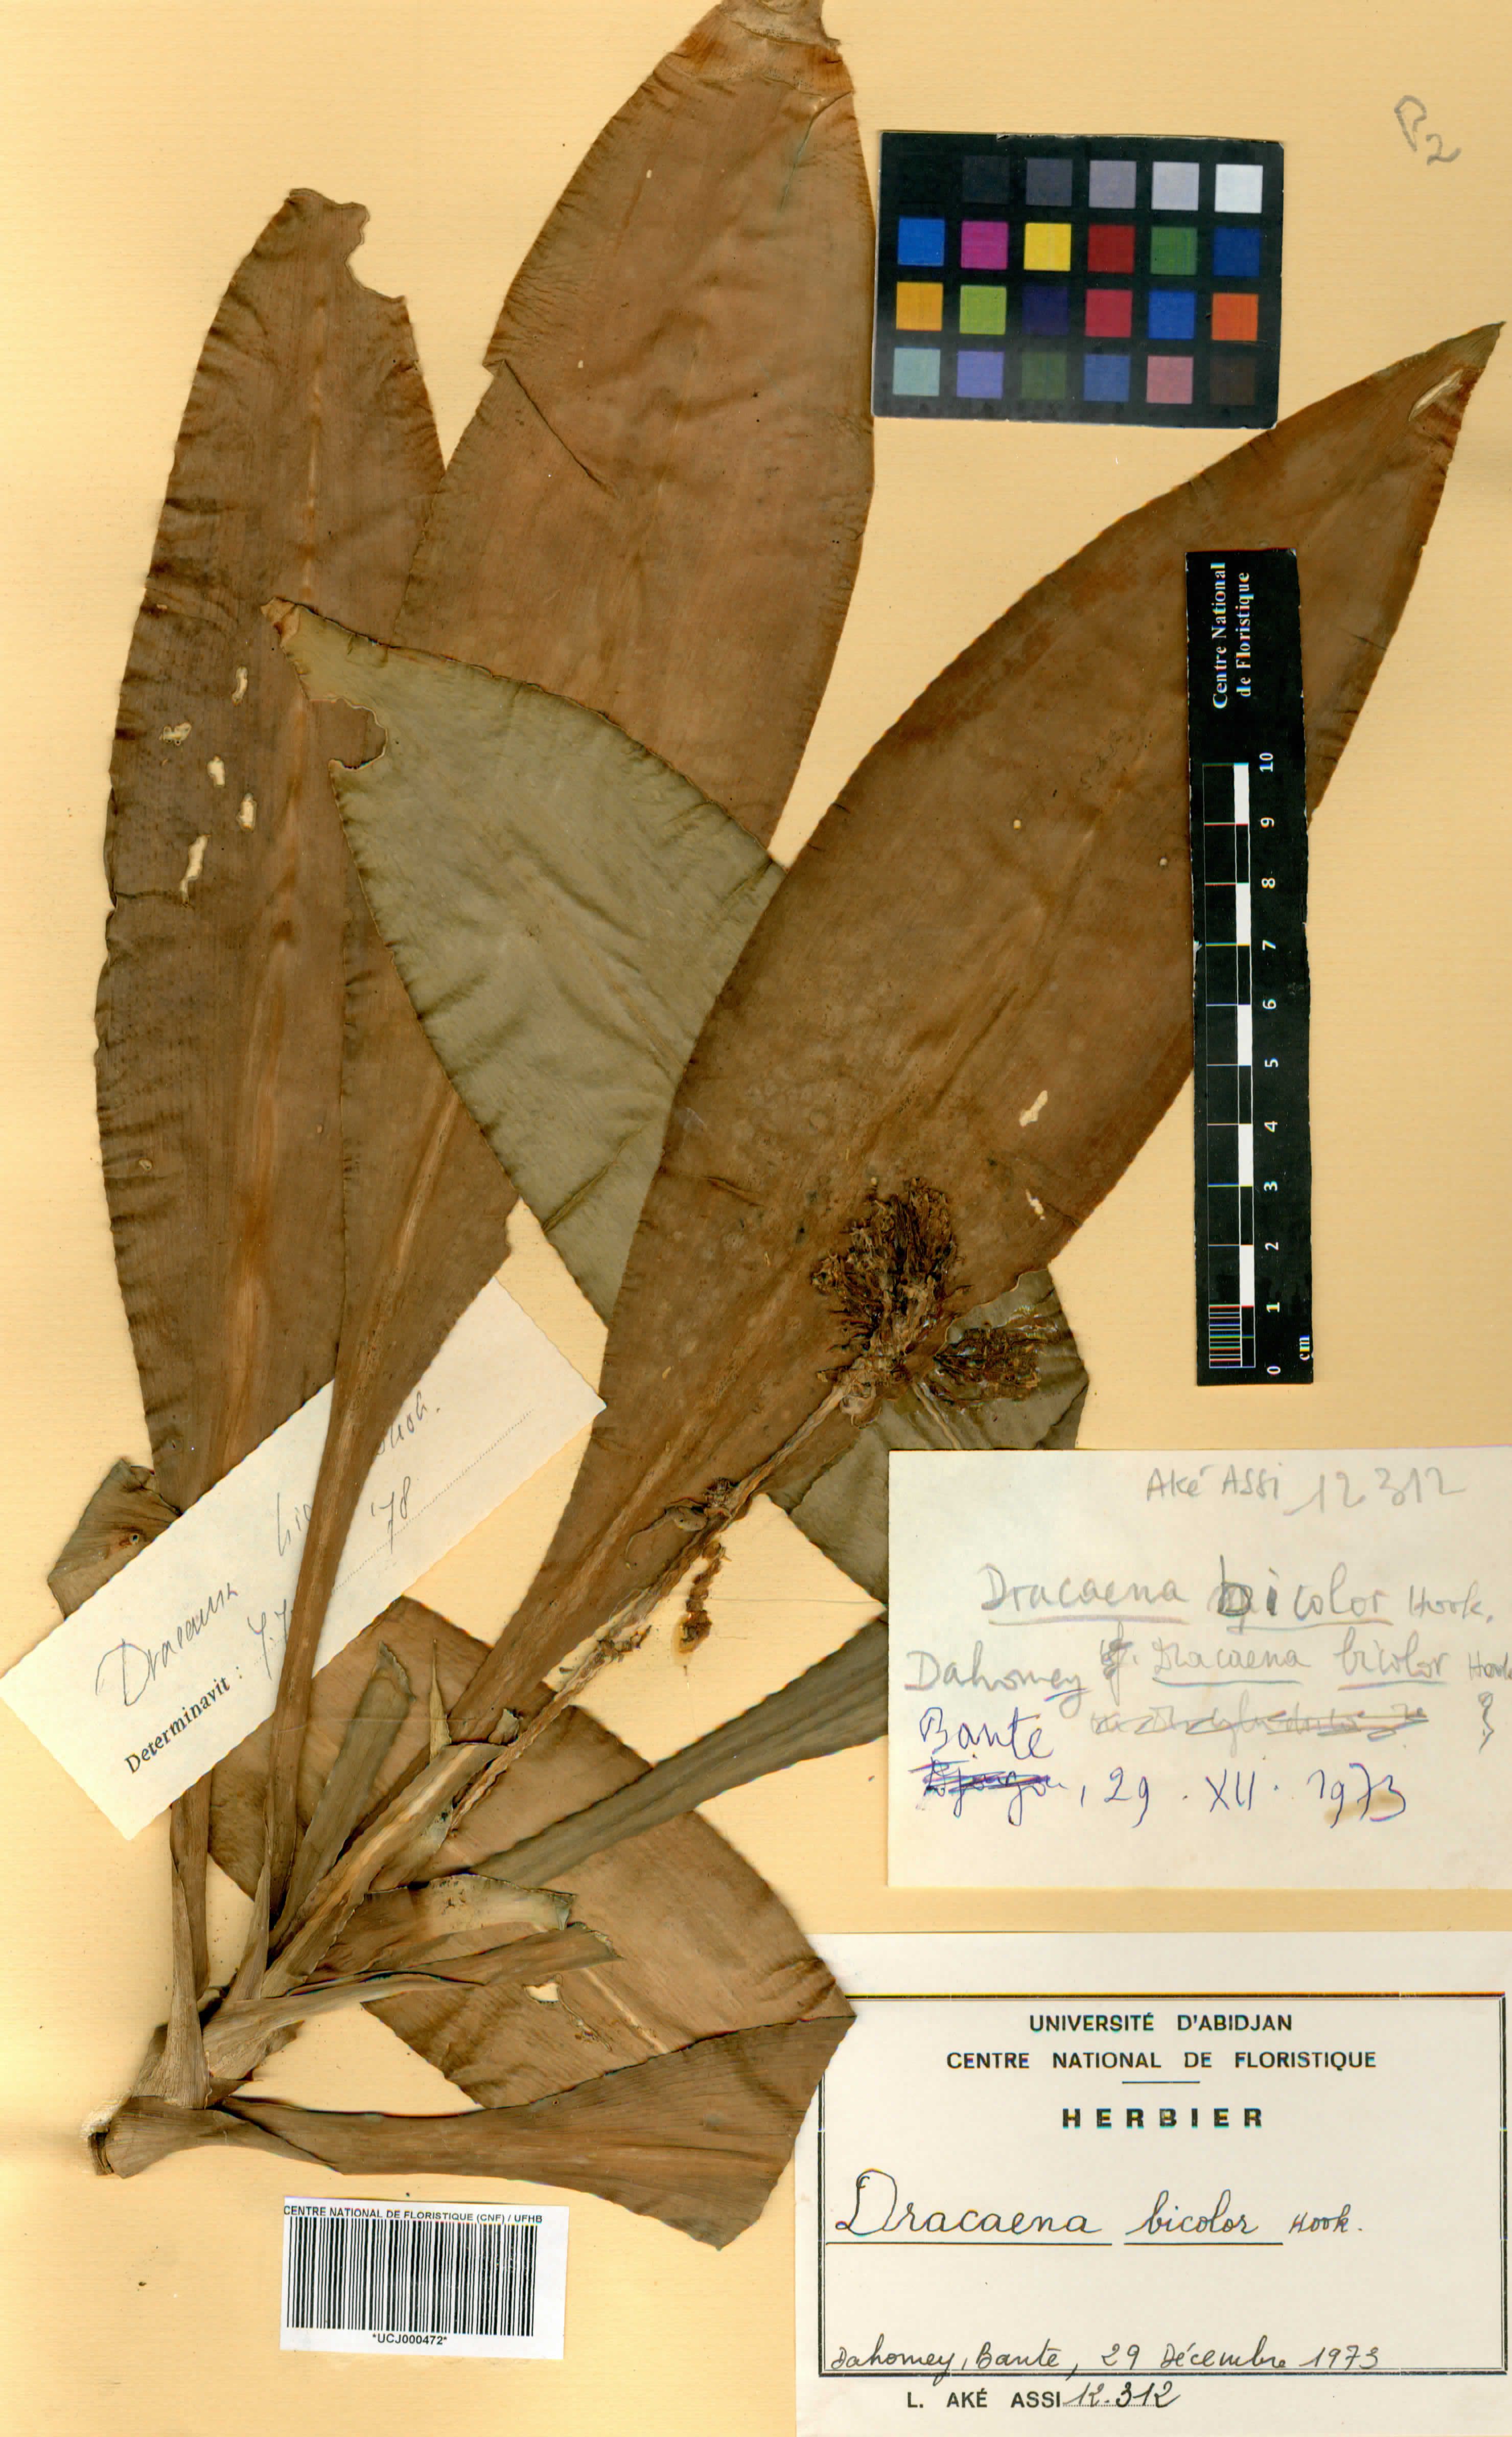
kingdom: Plantae
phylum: Tracheophyta
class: Liliopsida
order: Asparagales
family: Asparagaceae
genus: Dracaena
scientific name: Dracaena bicolor
